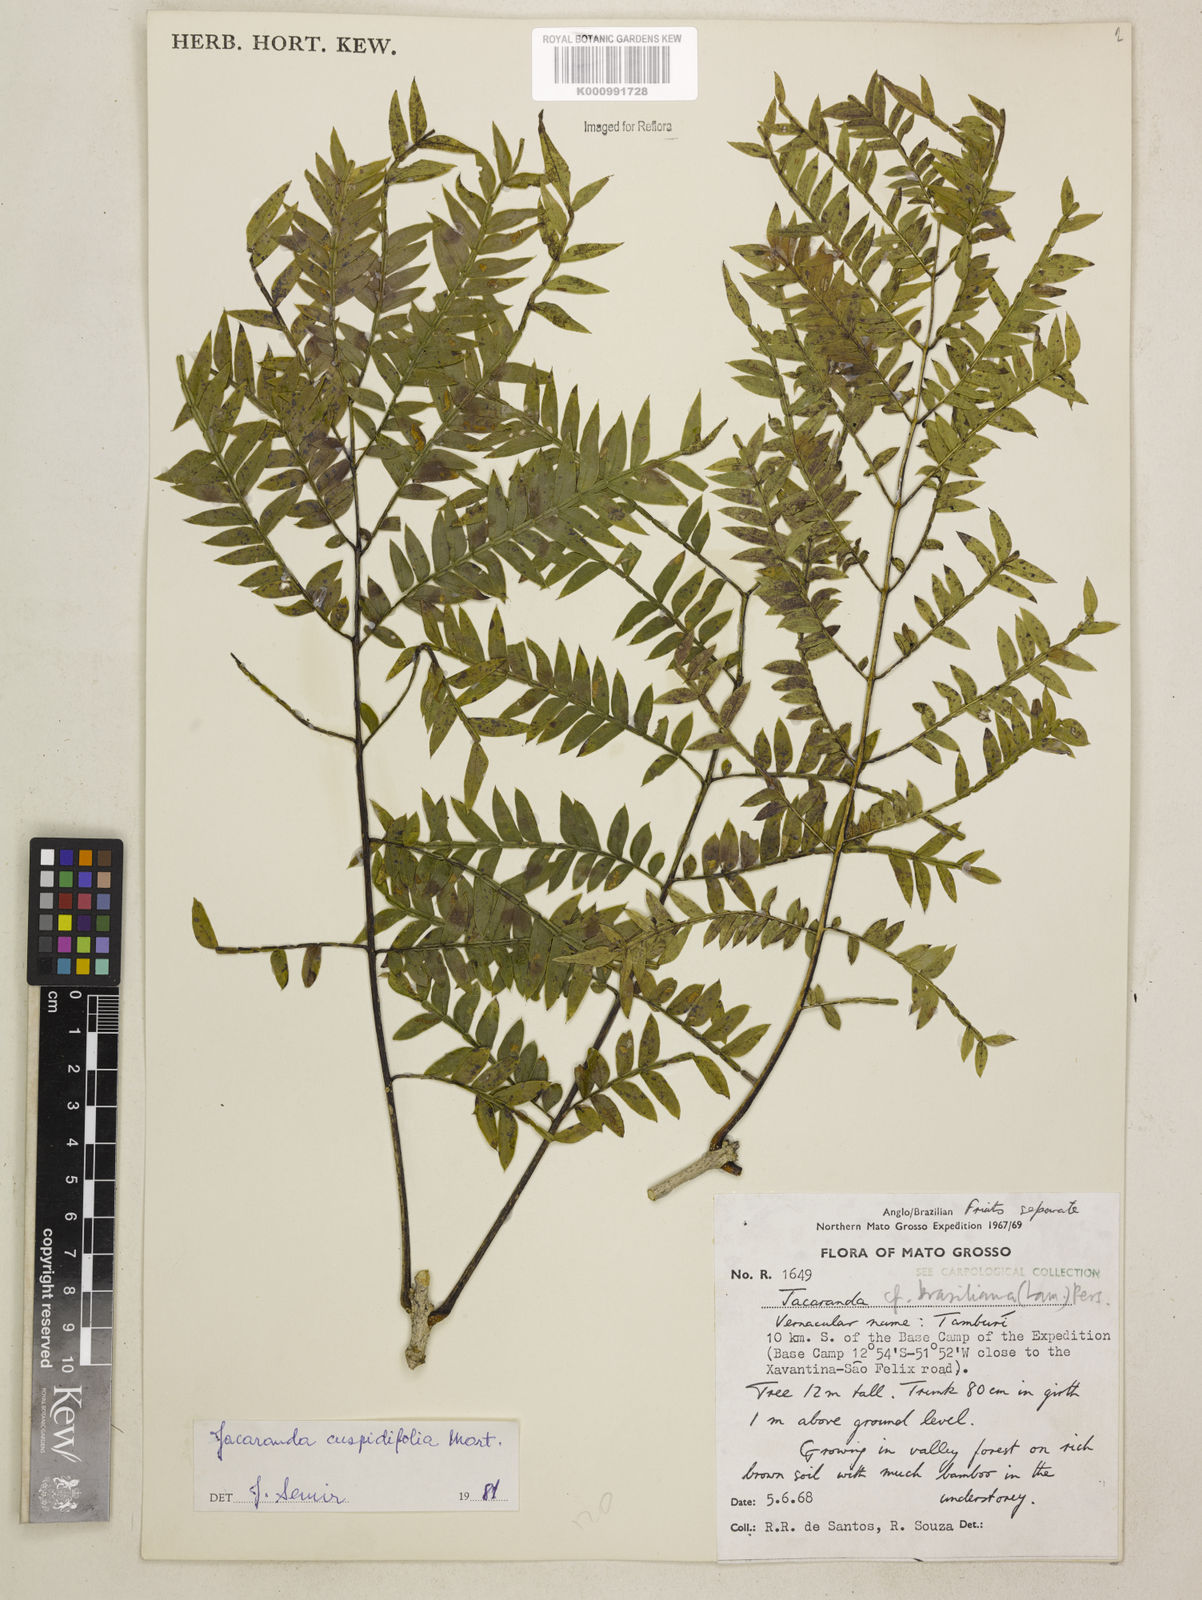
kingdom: Plantae
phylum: Tracheophyta
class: Magnoliopsida
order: Lamiales
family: Bignoniaceae
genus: Jacaranda
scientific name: Jacaranda cuspidifolia
